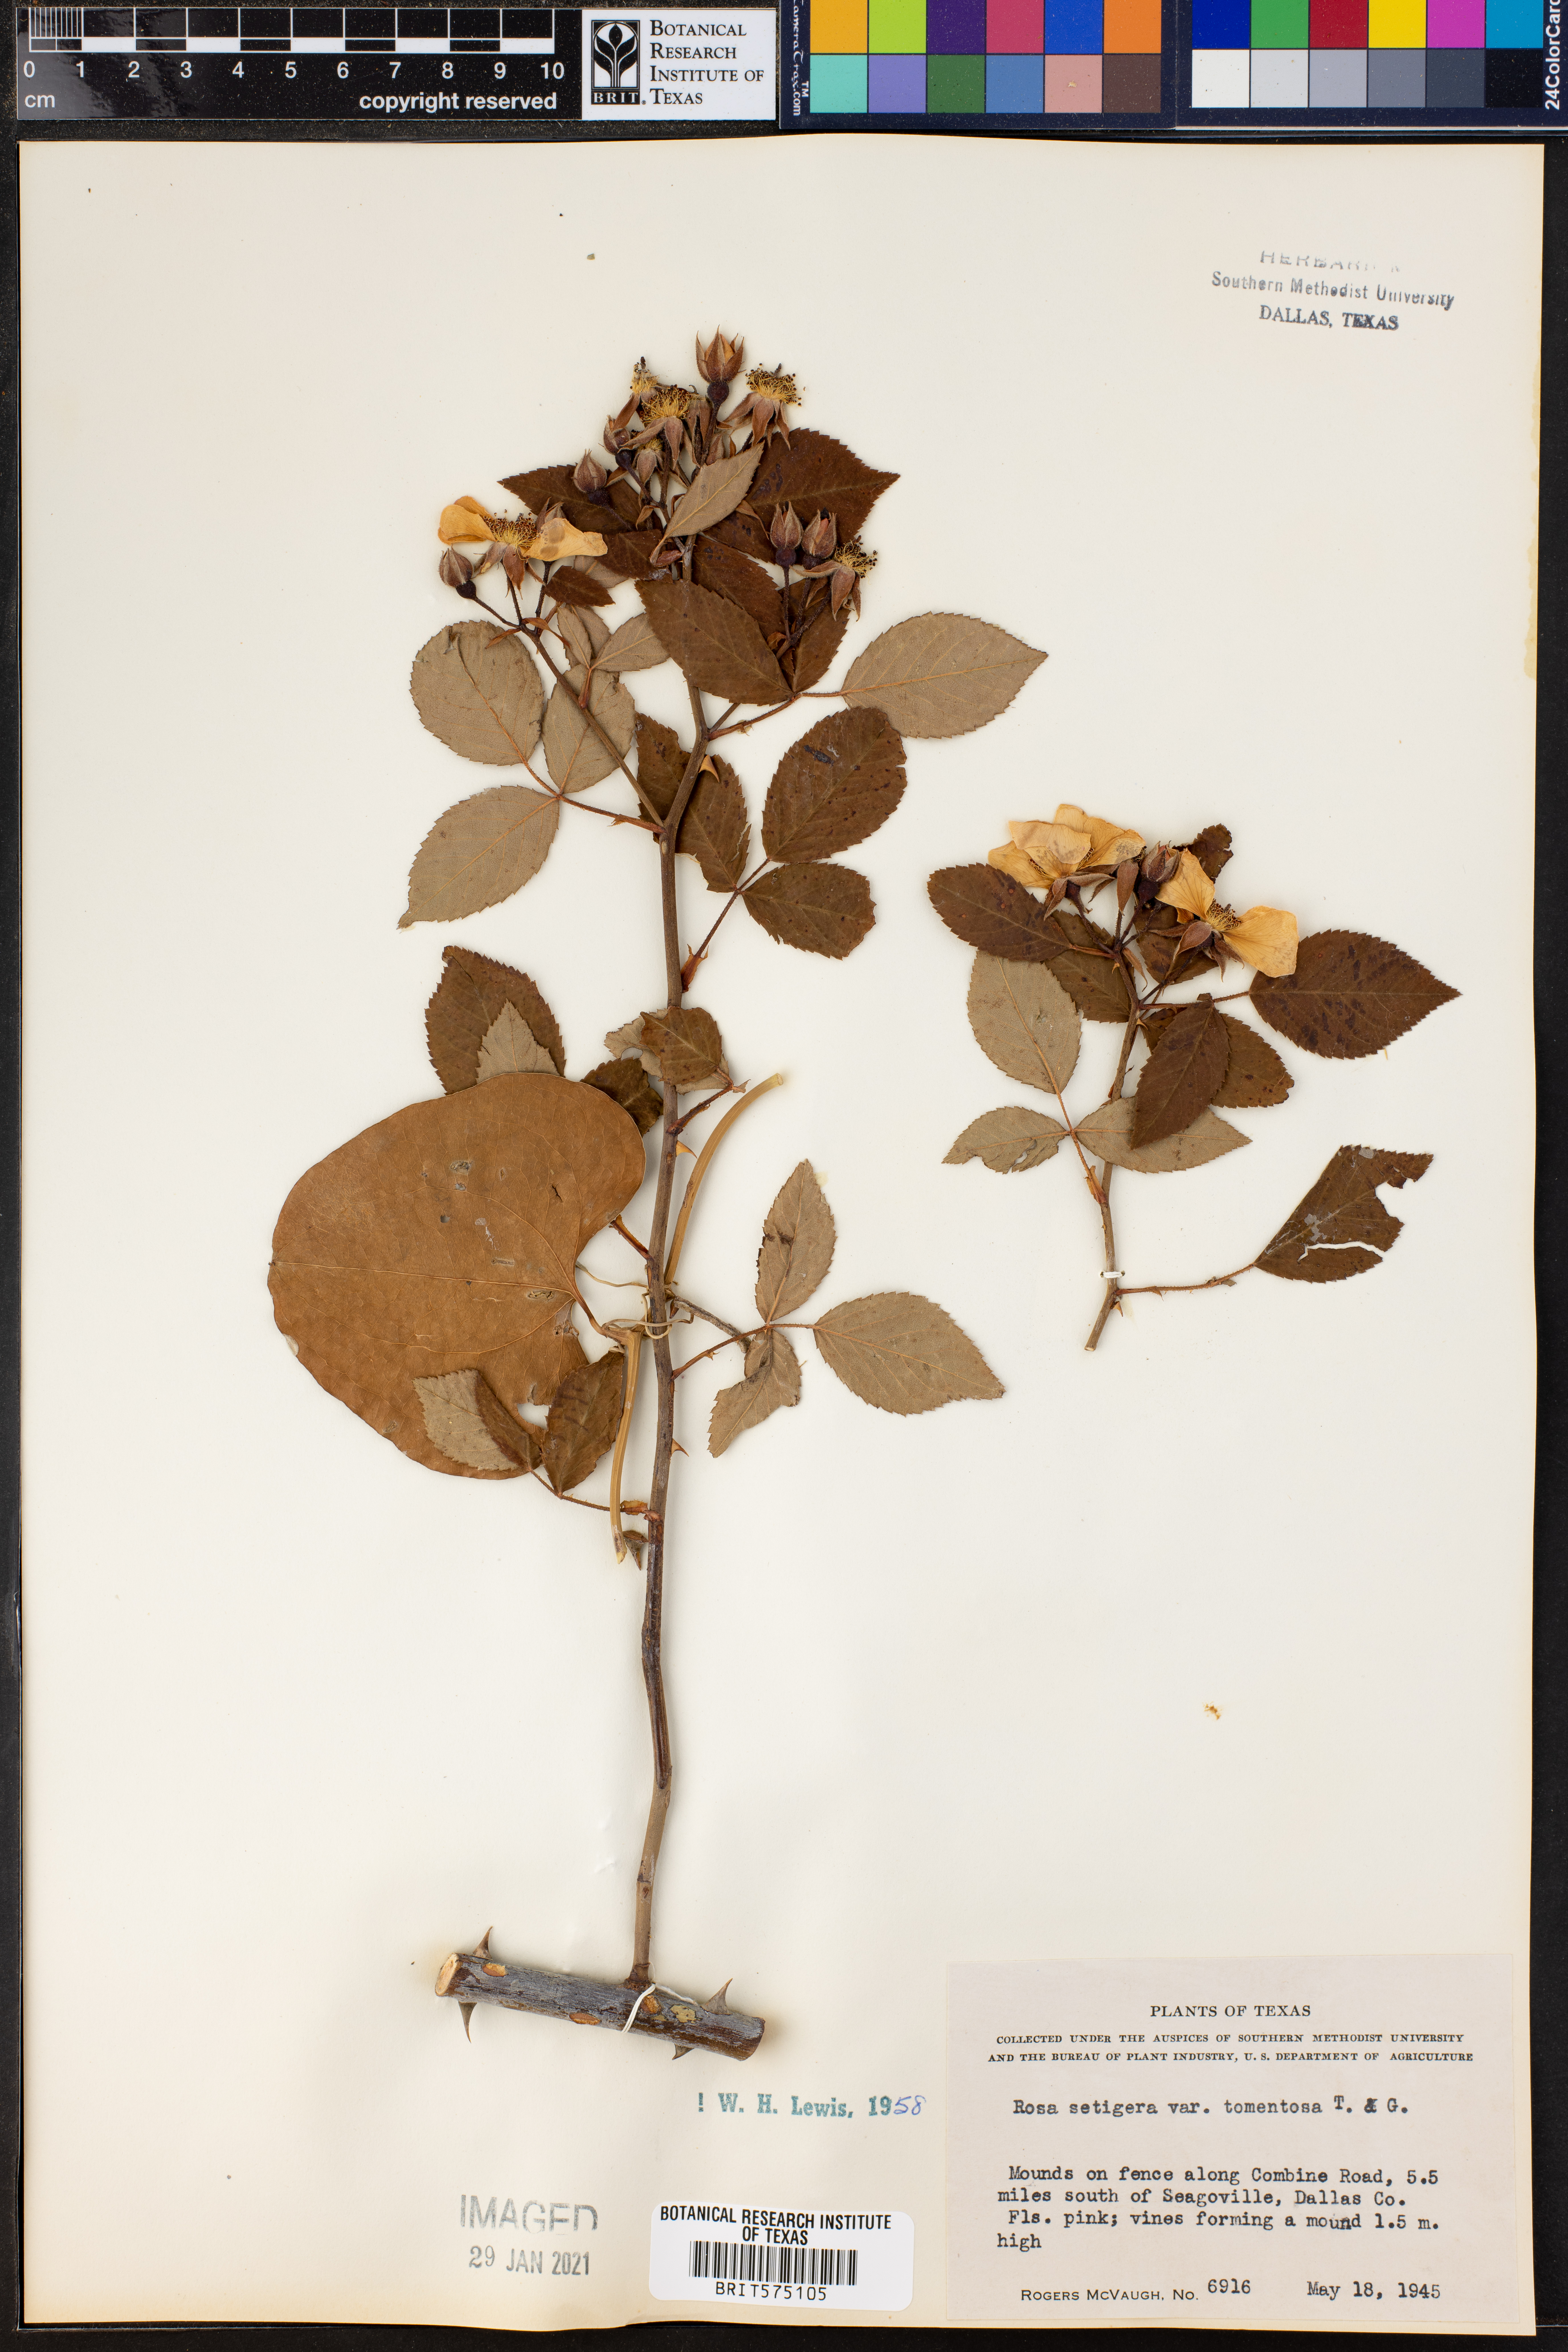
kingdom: Plantae
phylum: Tracheophyta
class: Magnoliopsida
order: Rosales
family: Rosaceae
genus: Rosa
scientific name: Rosa setigera
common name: Prairie rose
